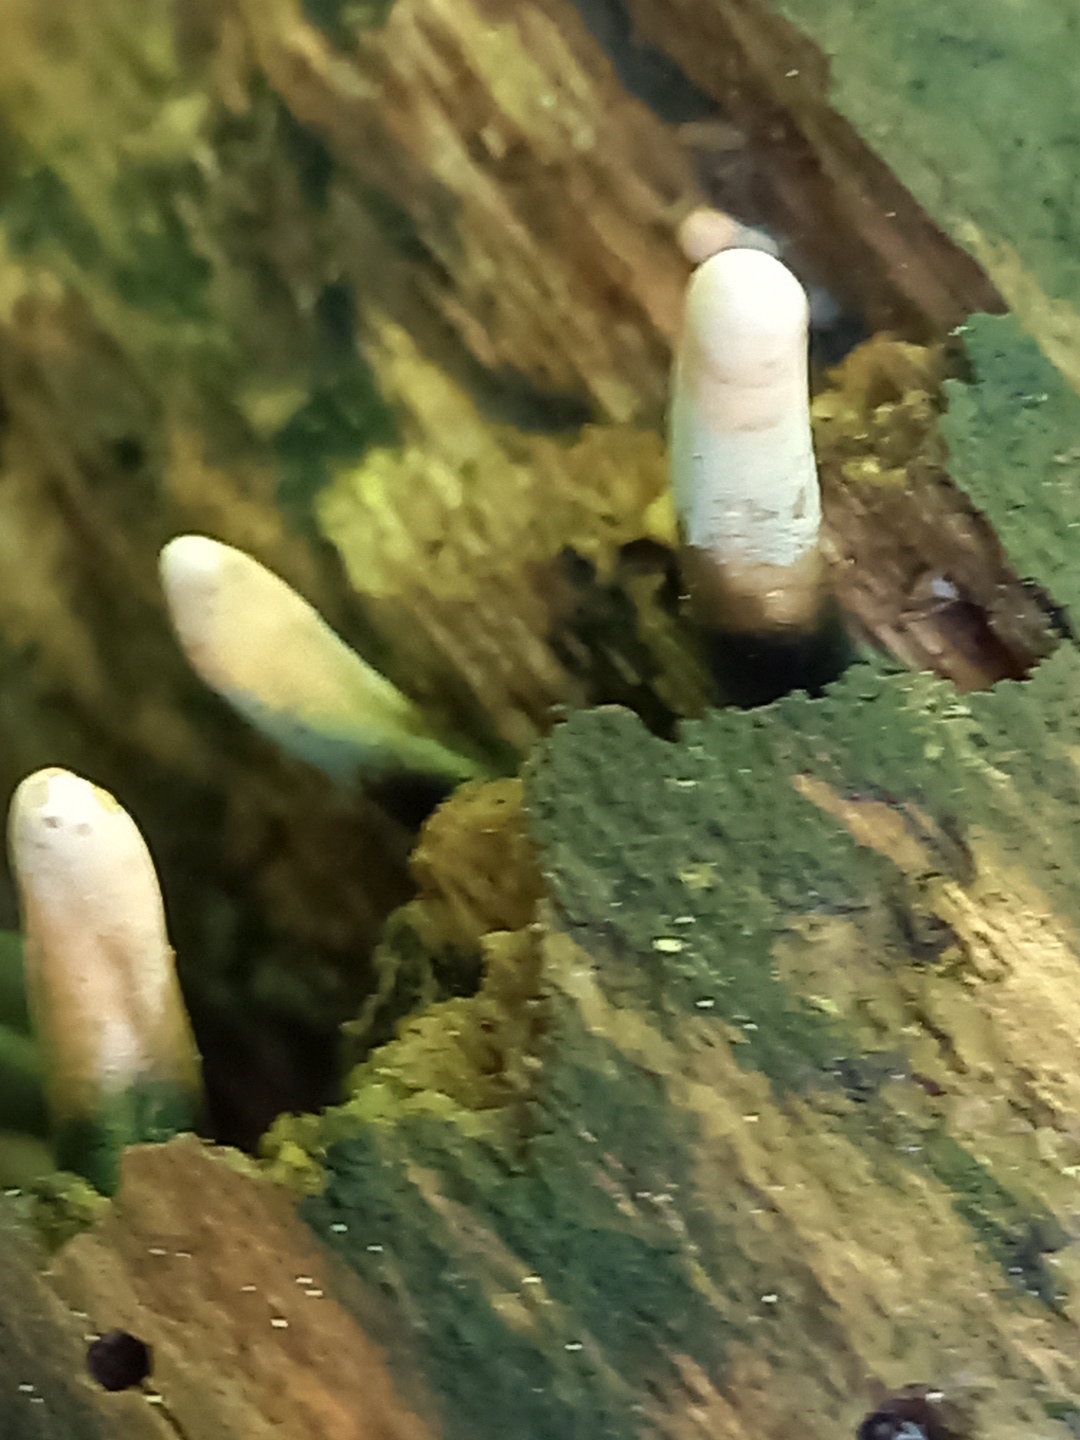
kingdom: Fungi
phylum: Ascomycota
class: Sordariomycetes
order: Xylariales
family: Xylariaceae
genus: Xylaria
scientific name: Xylaria longipes
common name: slank stødsvamp
